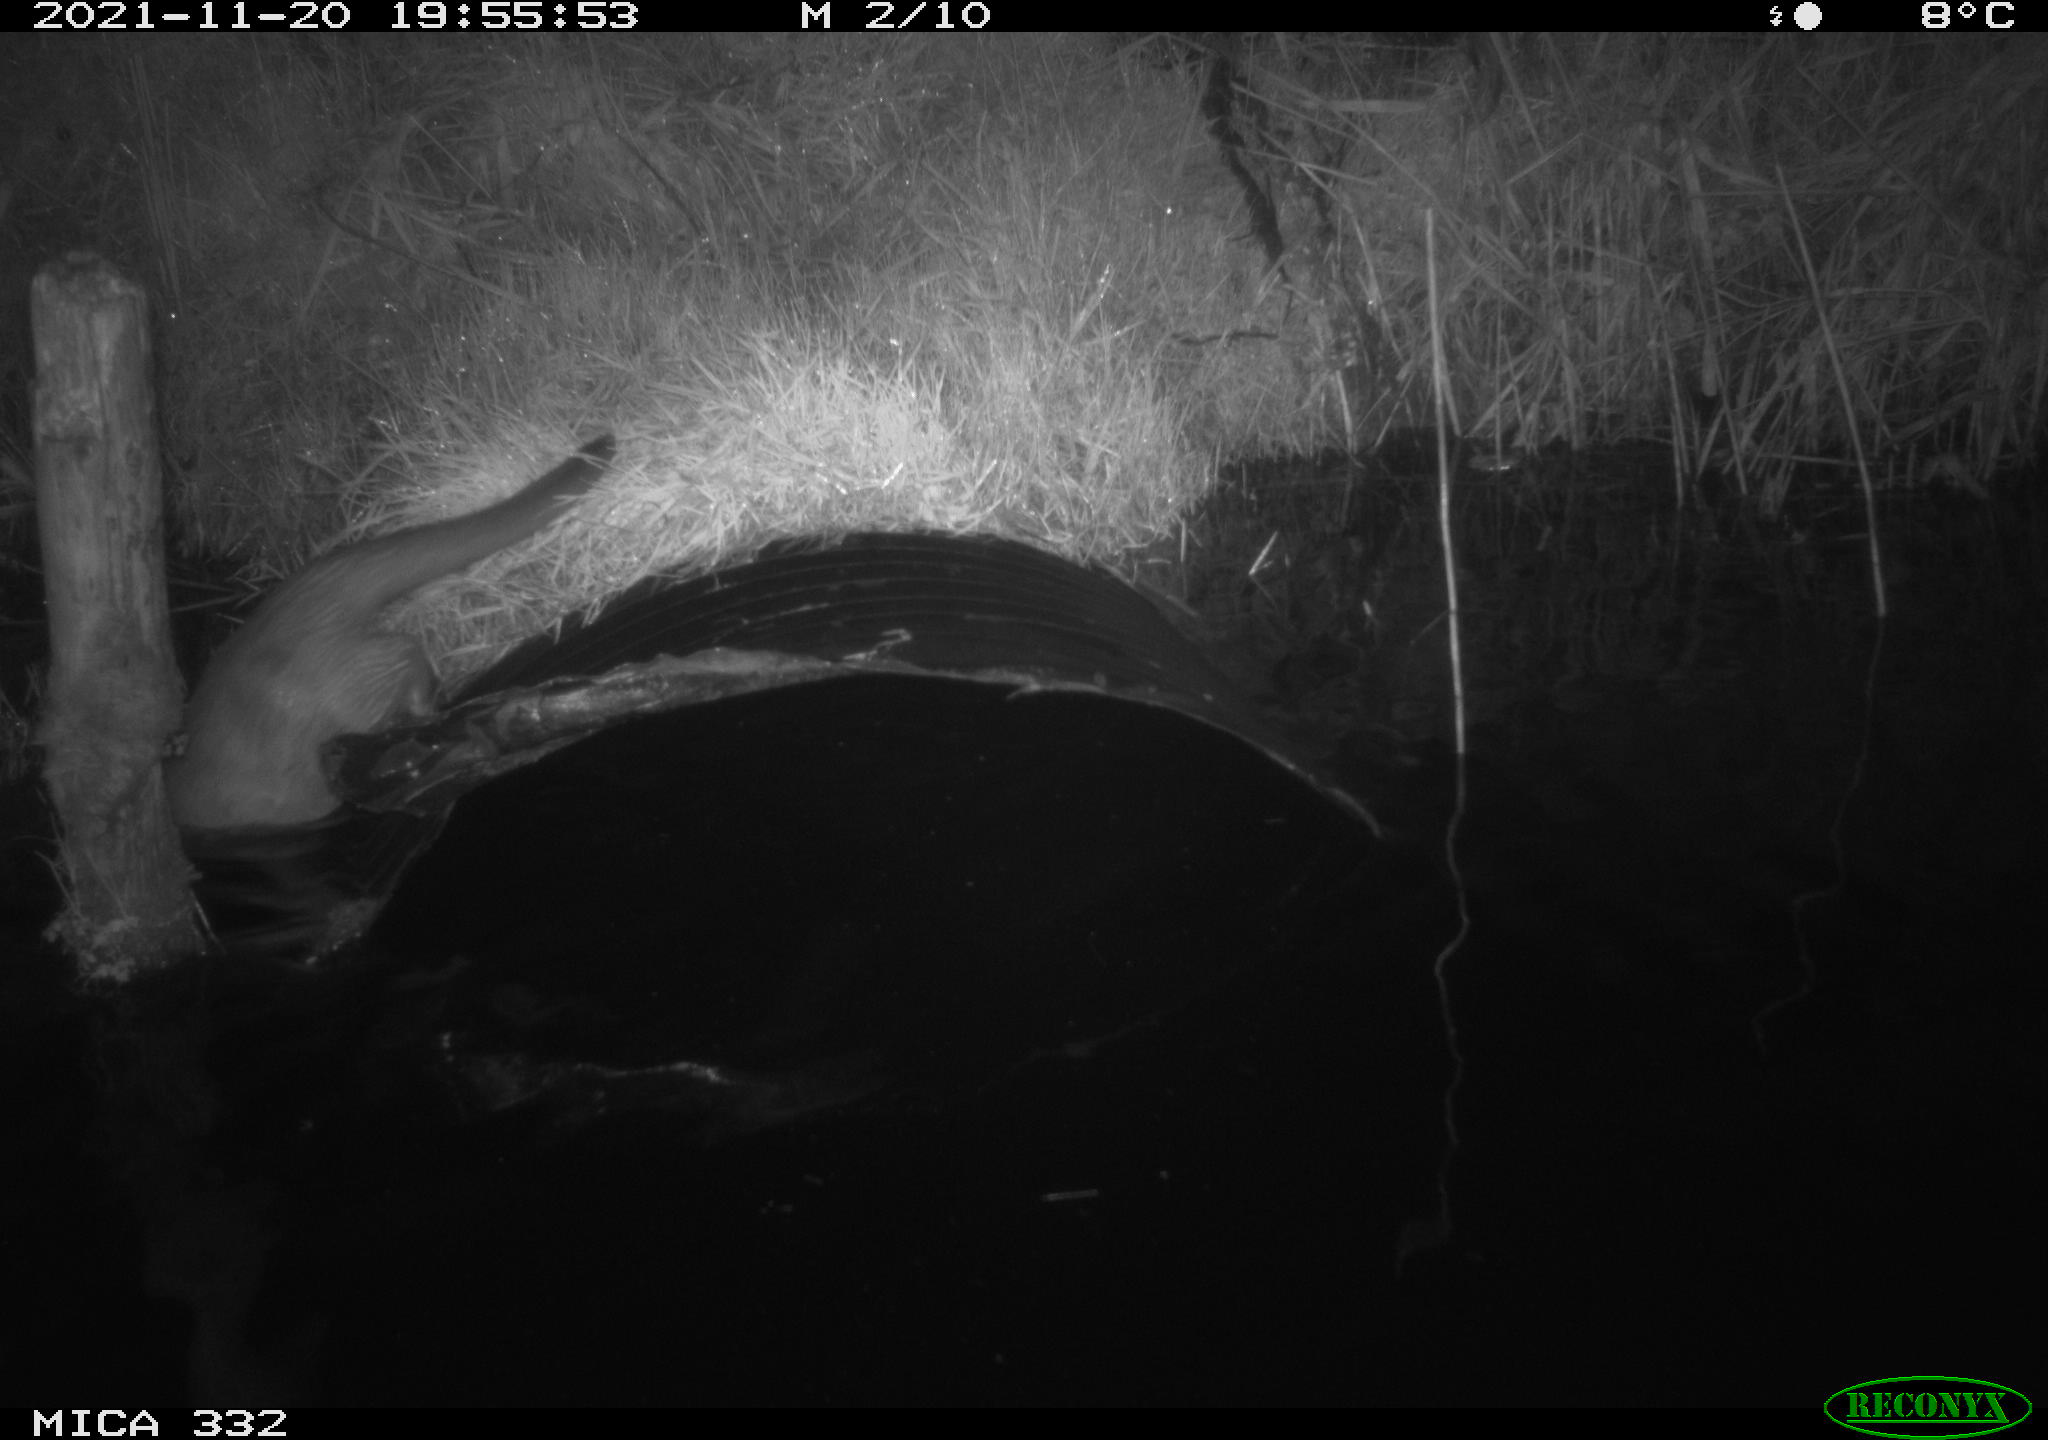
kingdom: Animalia
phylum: Chordata
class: Mammalia
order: Carnivora
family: Mustelidae
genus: Lutra
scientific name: Lutra lutra
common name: European otter
